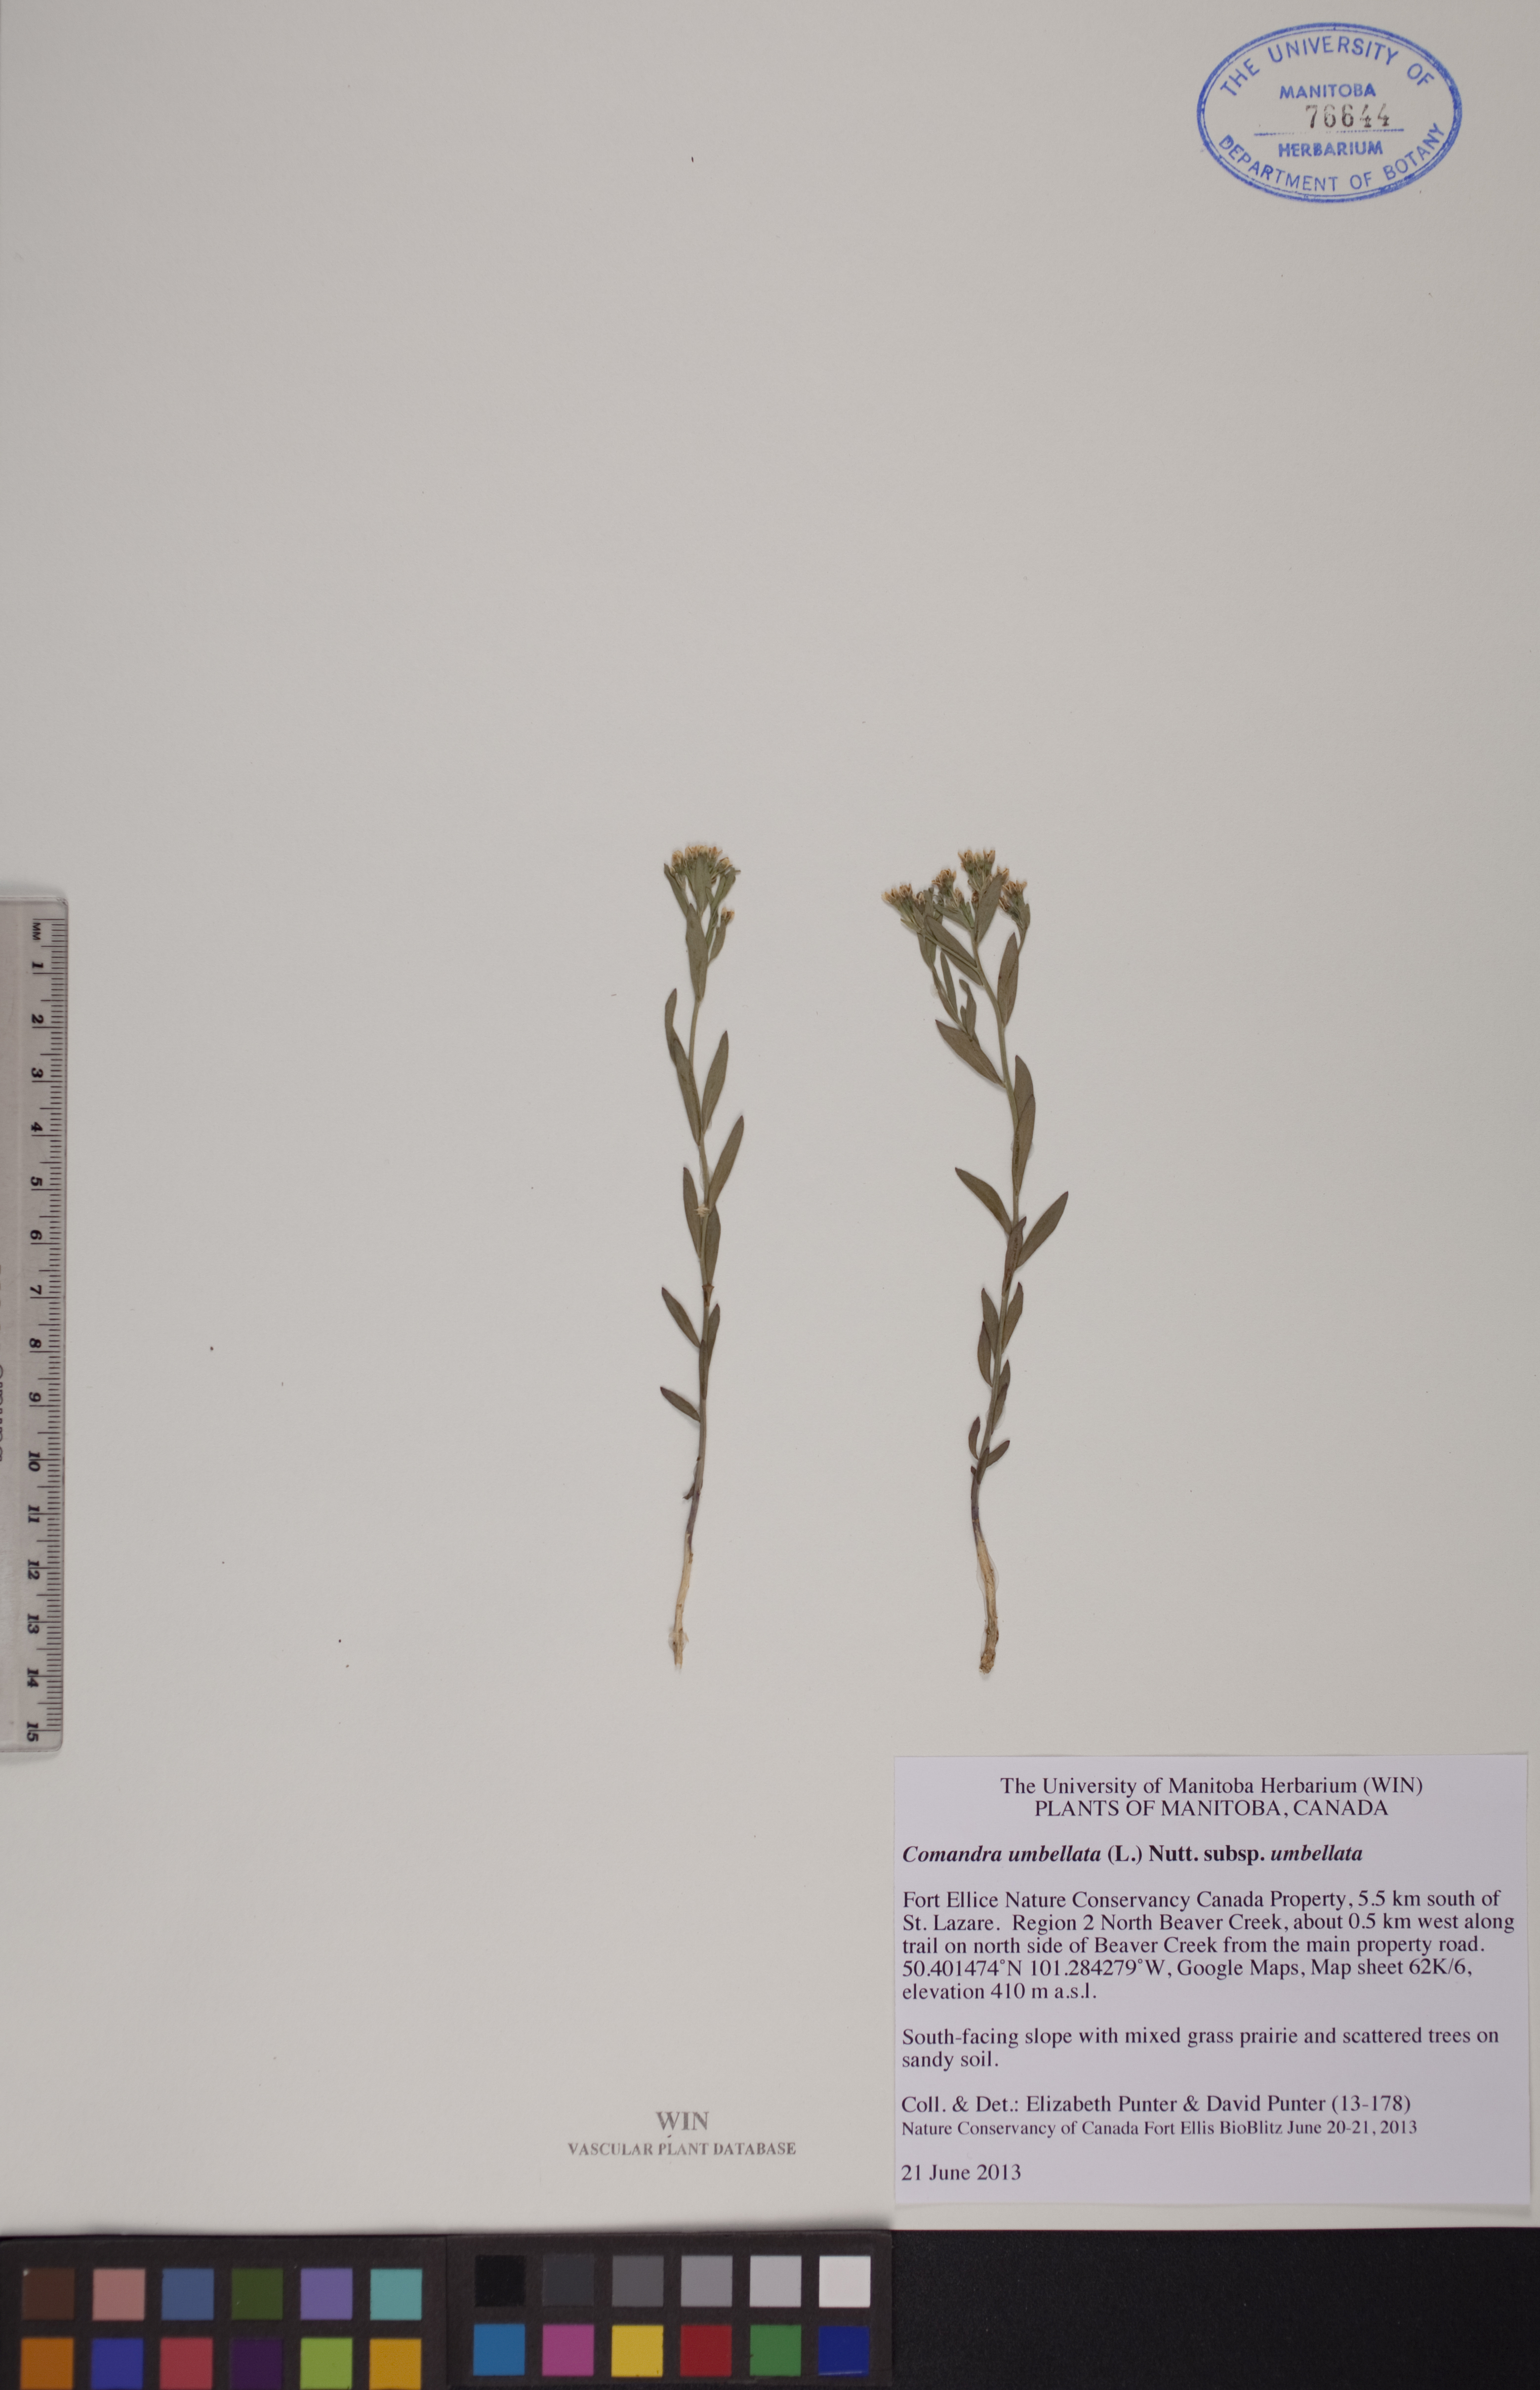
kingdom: Plantae
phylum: Tracheophyta
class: Magnoliopsida
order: Santalales
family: Comandraceae
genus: Comandra
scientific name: Comandra umbellata
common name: Bastard toadflax
